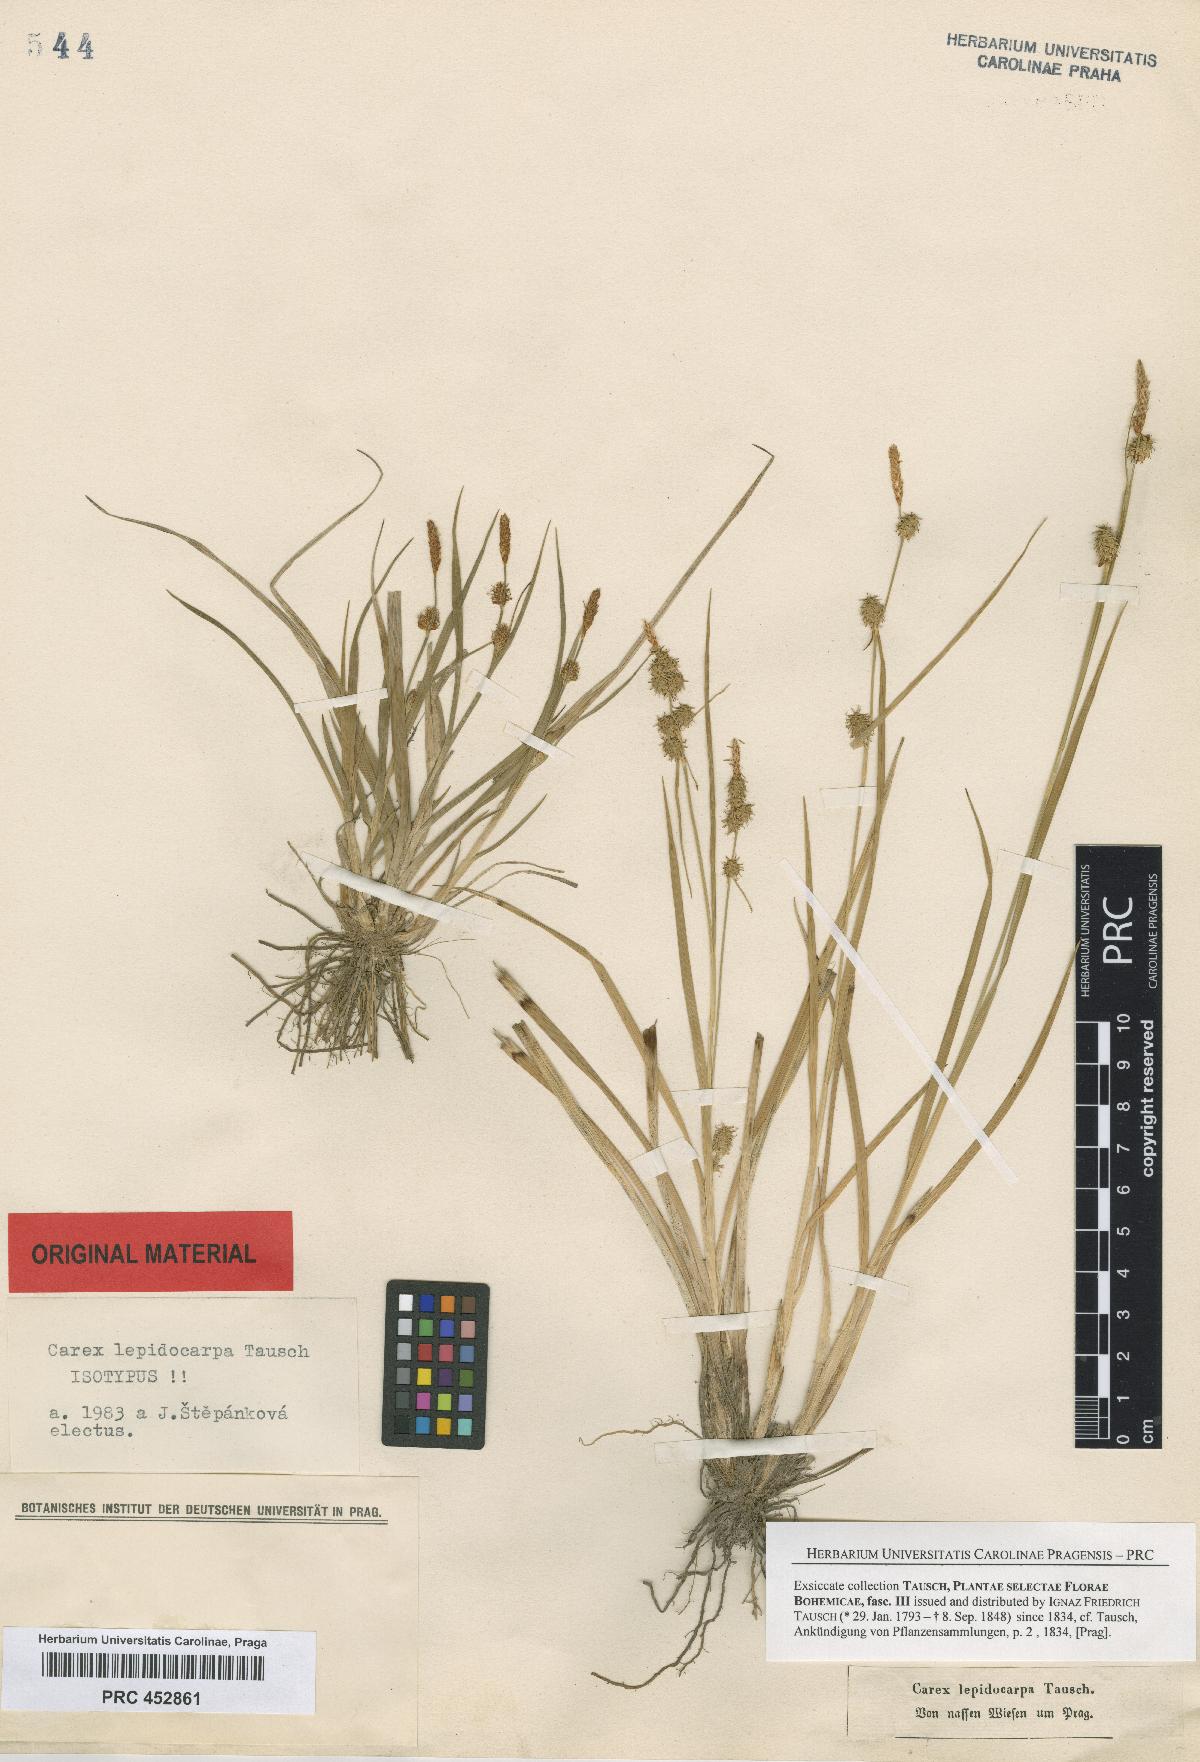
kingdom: Plantae
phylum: Tracheophyta
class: Liliopsida
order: Poales
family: Cyperaceae
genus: Carex
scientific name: Carex lepidocarpa
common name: Long-stalked yellow-sedge
